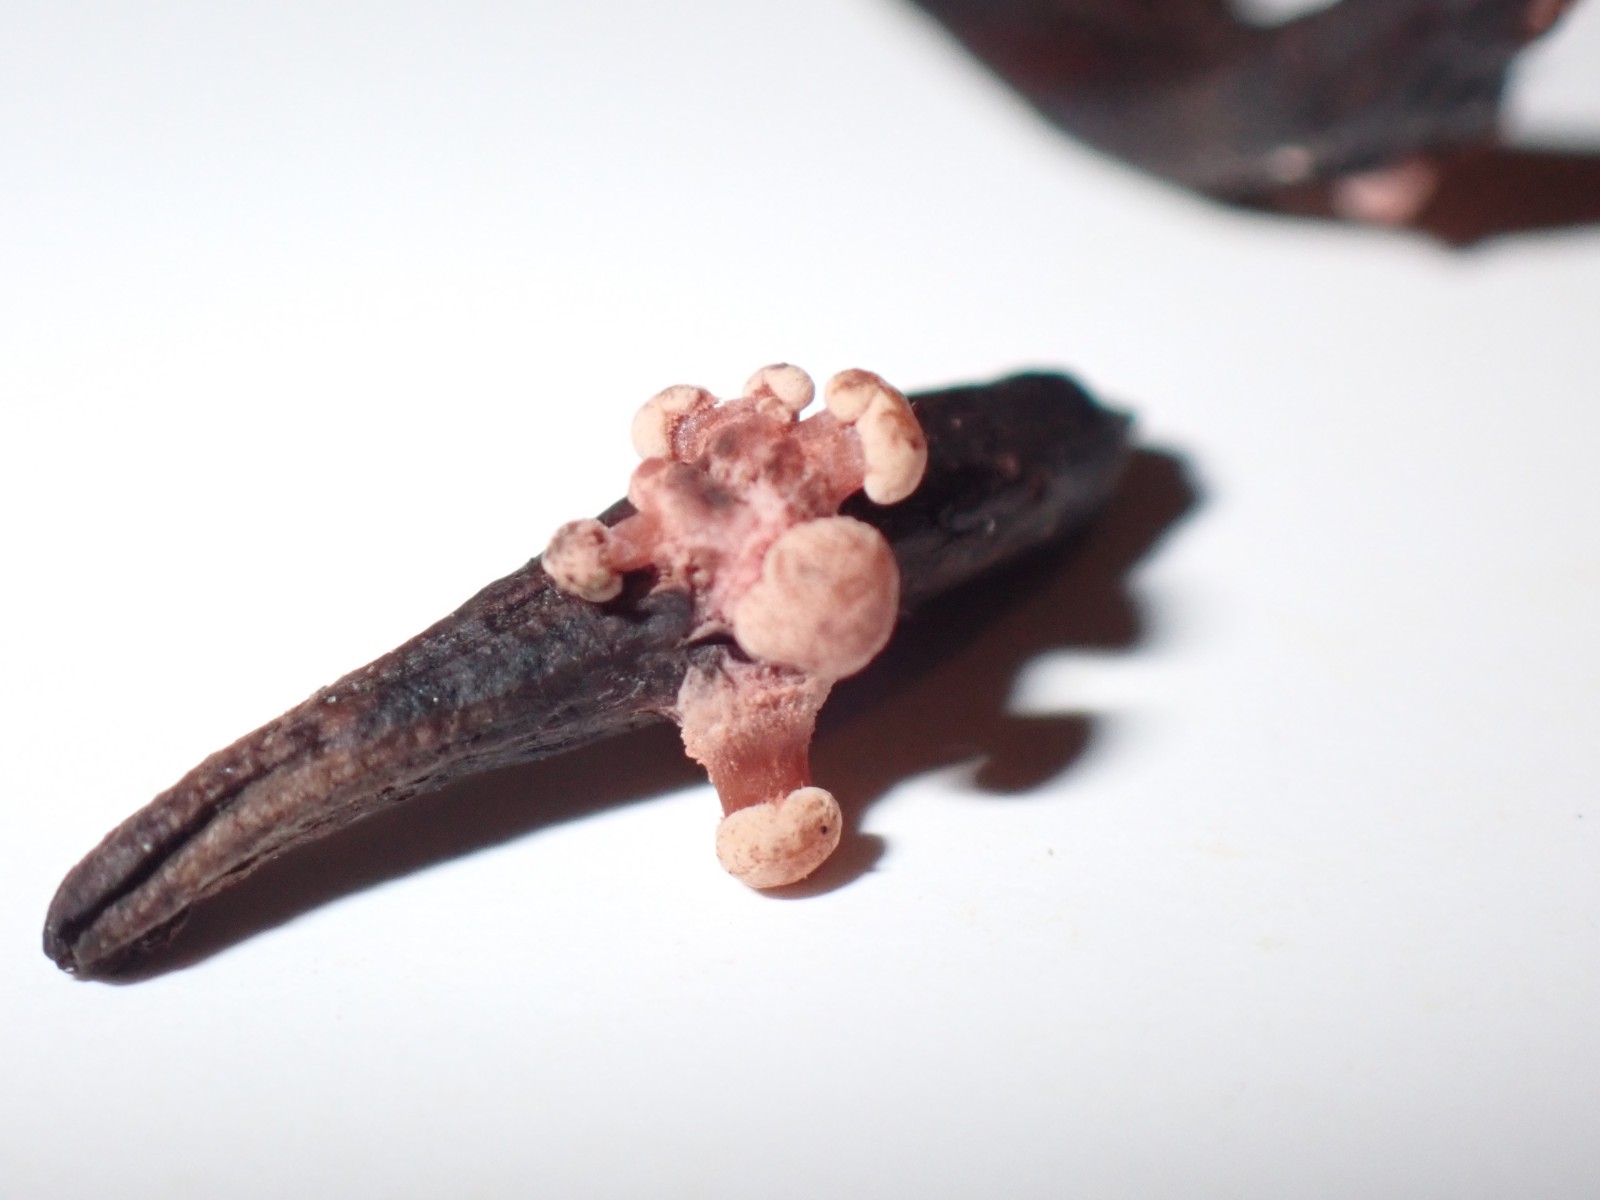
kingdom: Fungi
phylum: Ascomycota
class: Sordariomycetes
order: Hypocreales
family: Clavicipitaceae
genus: Claviceps
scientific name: Claviceps purpurea
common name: almindelig meldrøjer
